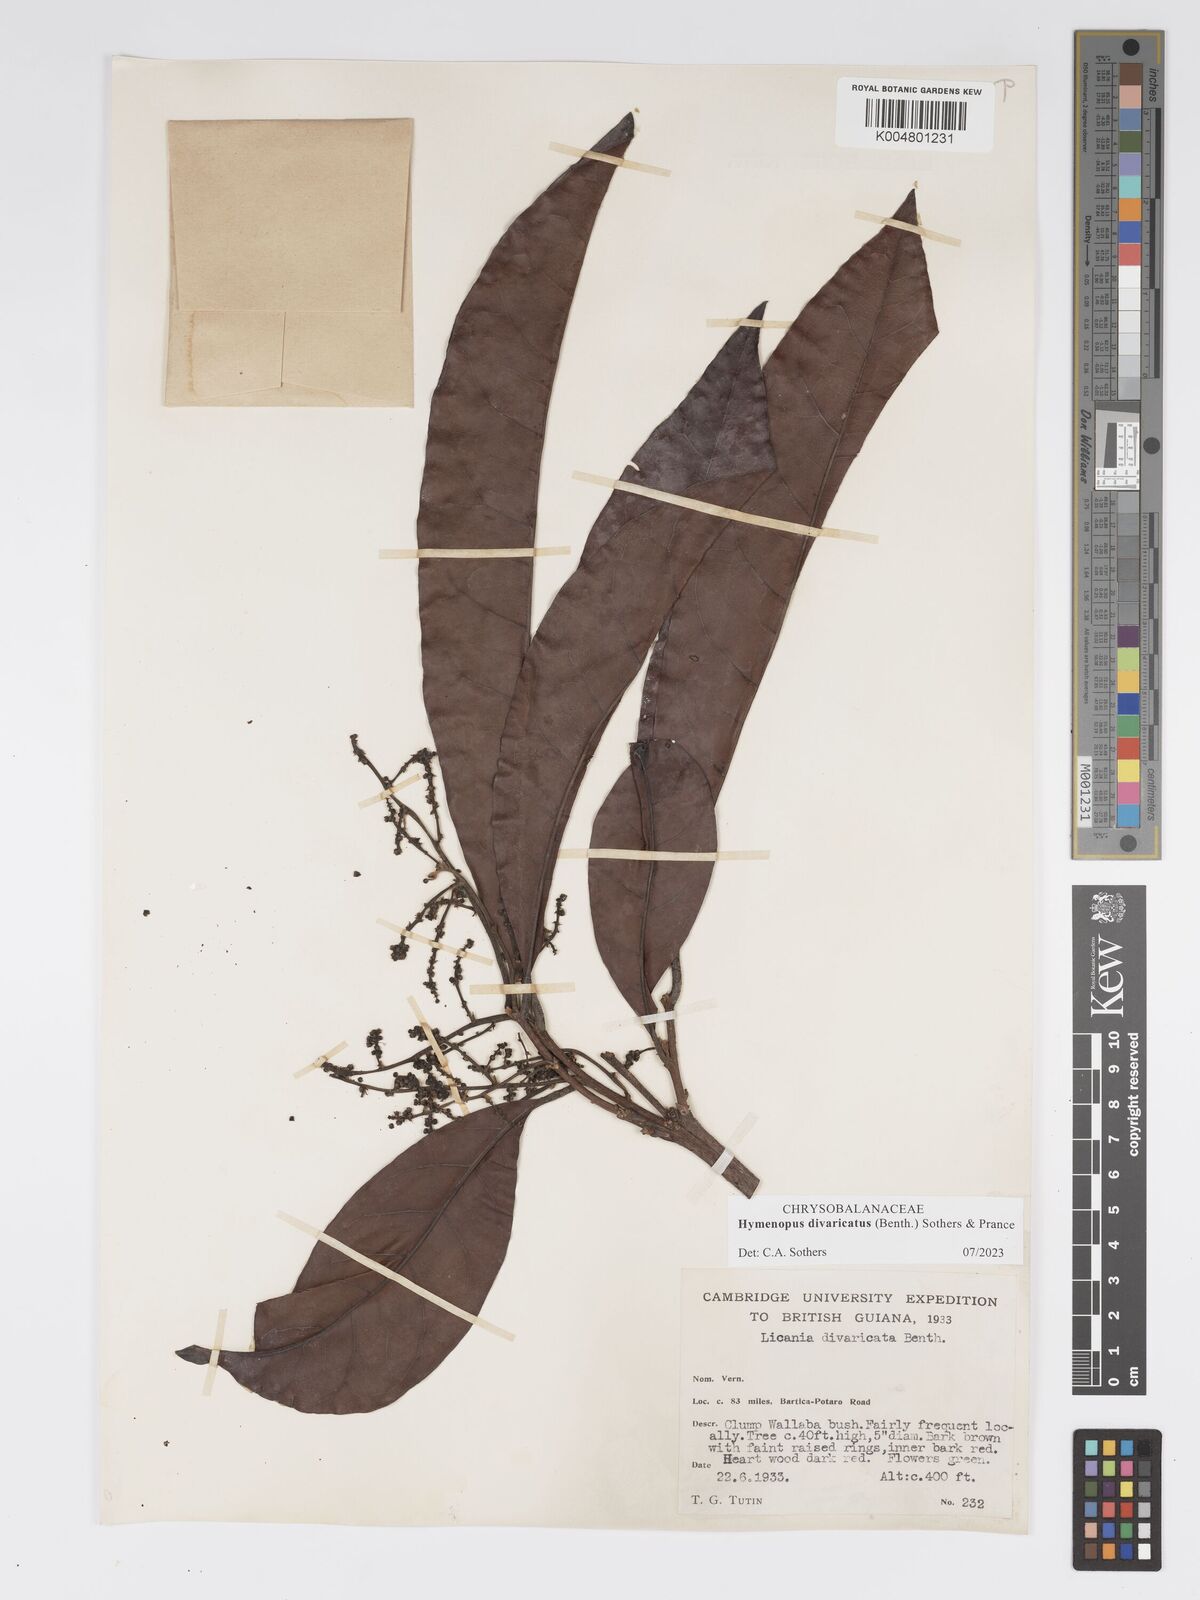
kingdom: Plantae
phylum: Tracheophyta
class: Magnoliopsida
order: Malpighiales
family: Chrysobalanaceae
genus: Hymenopus
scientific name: Hymenopus divaricatus
